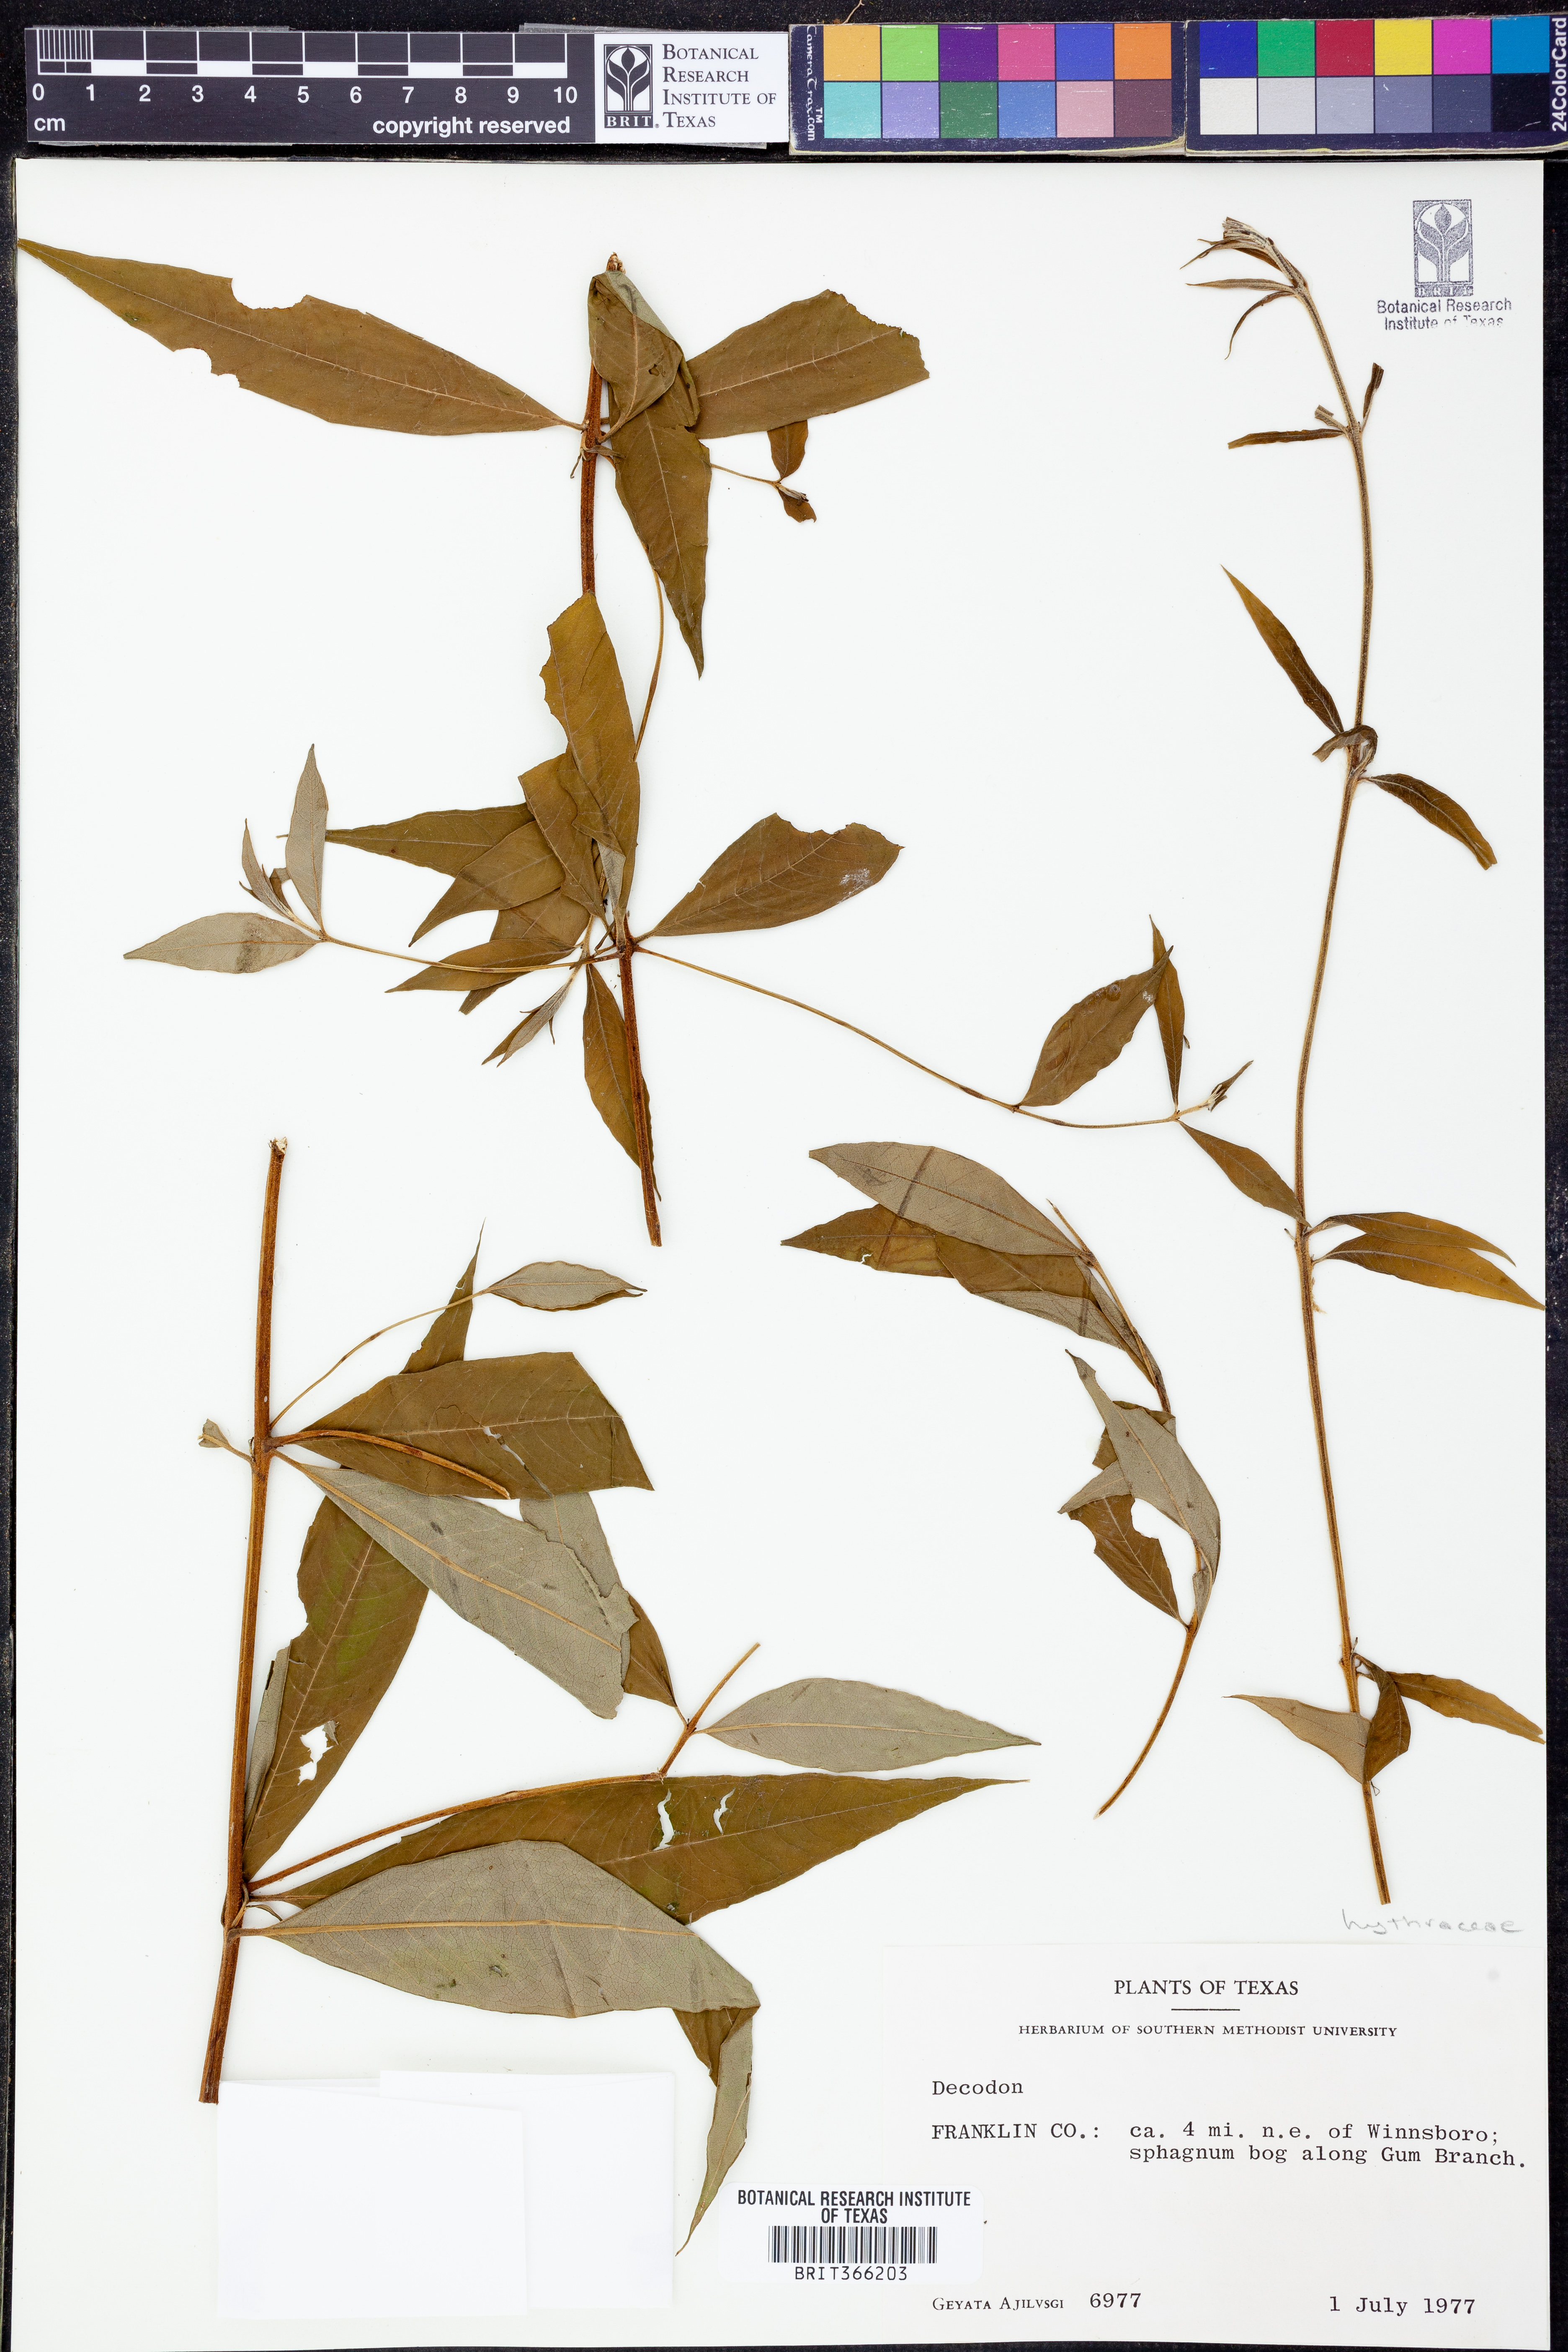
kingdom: Plantae
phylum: Tracheophyta
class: Magnoliopsida
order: Myrtales
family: Lythraceae
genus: Decodon
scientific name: Decodon
